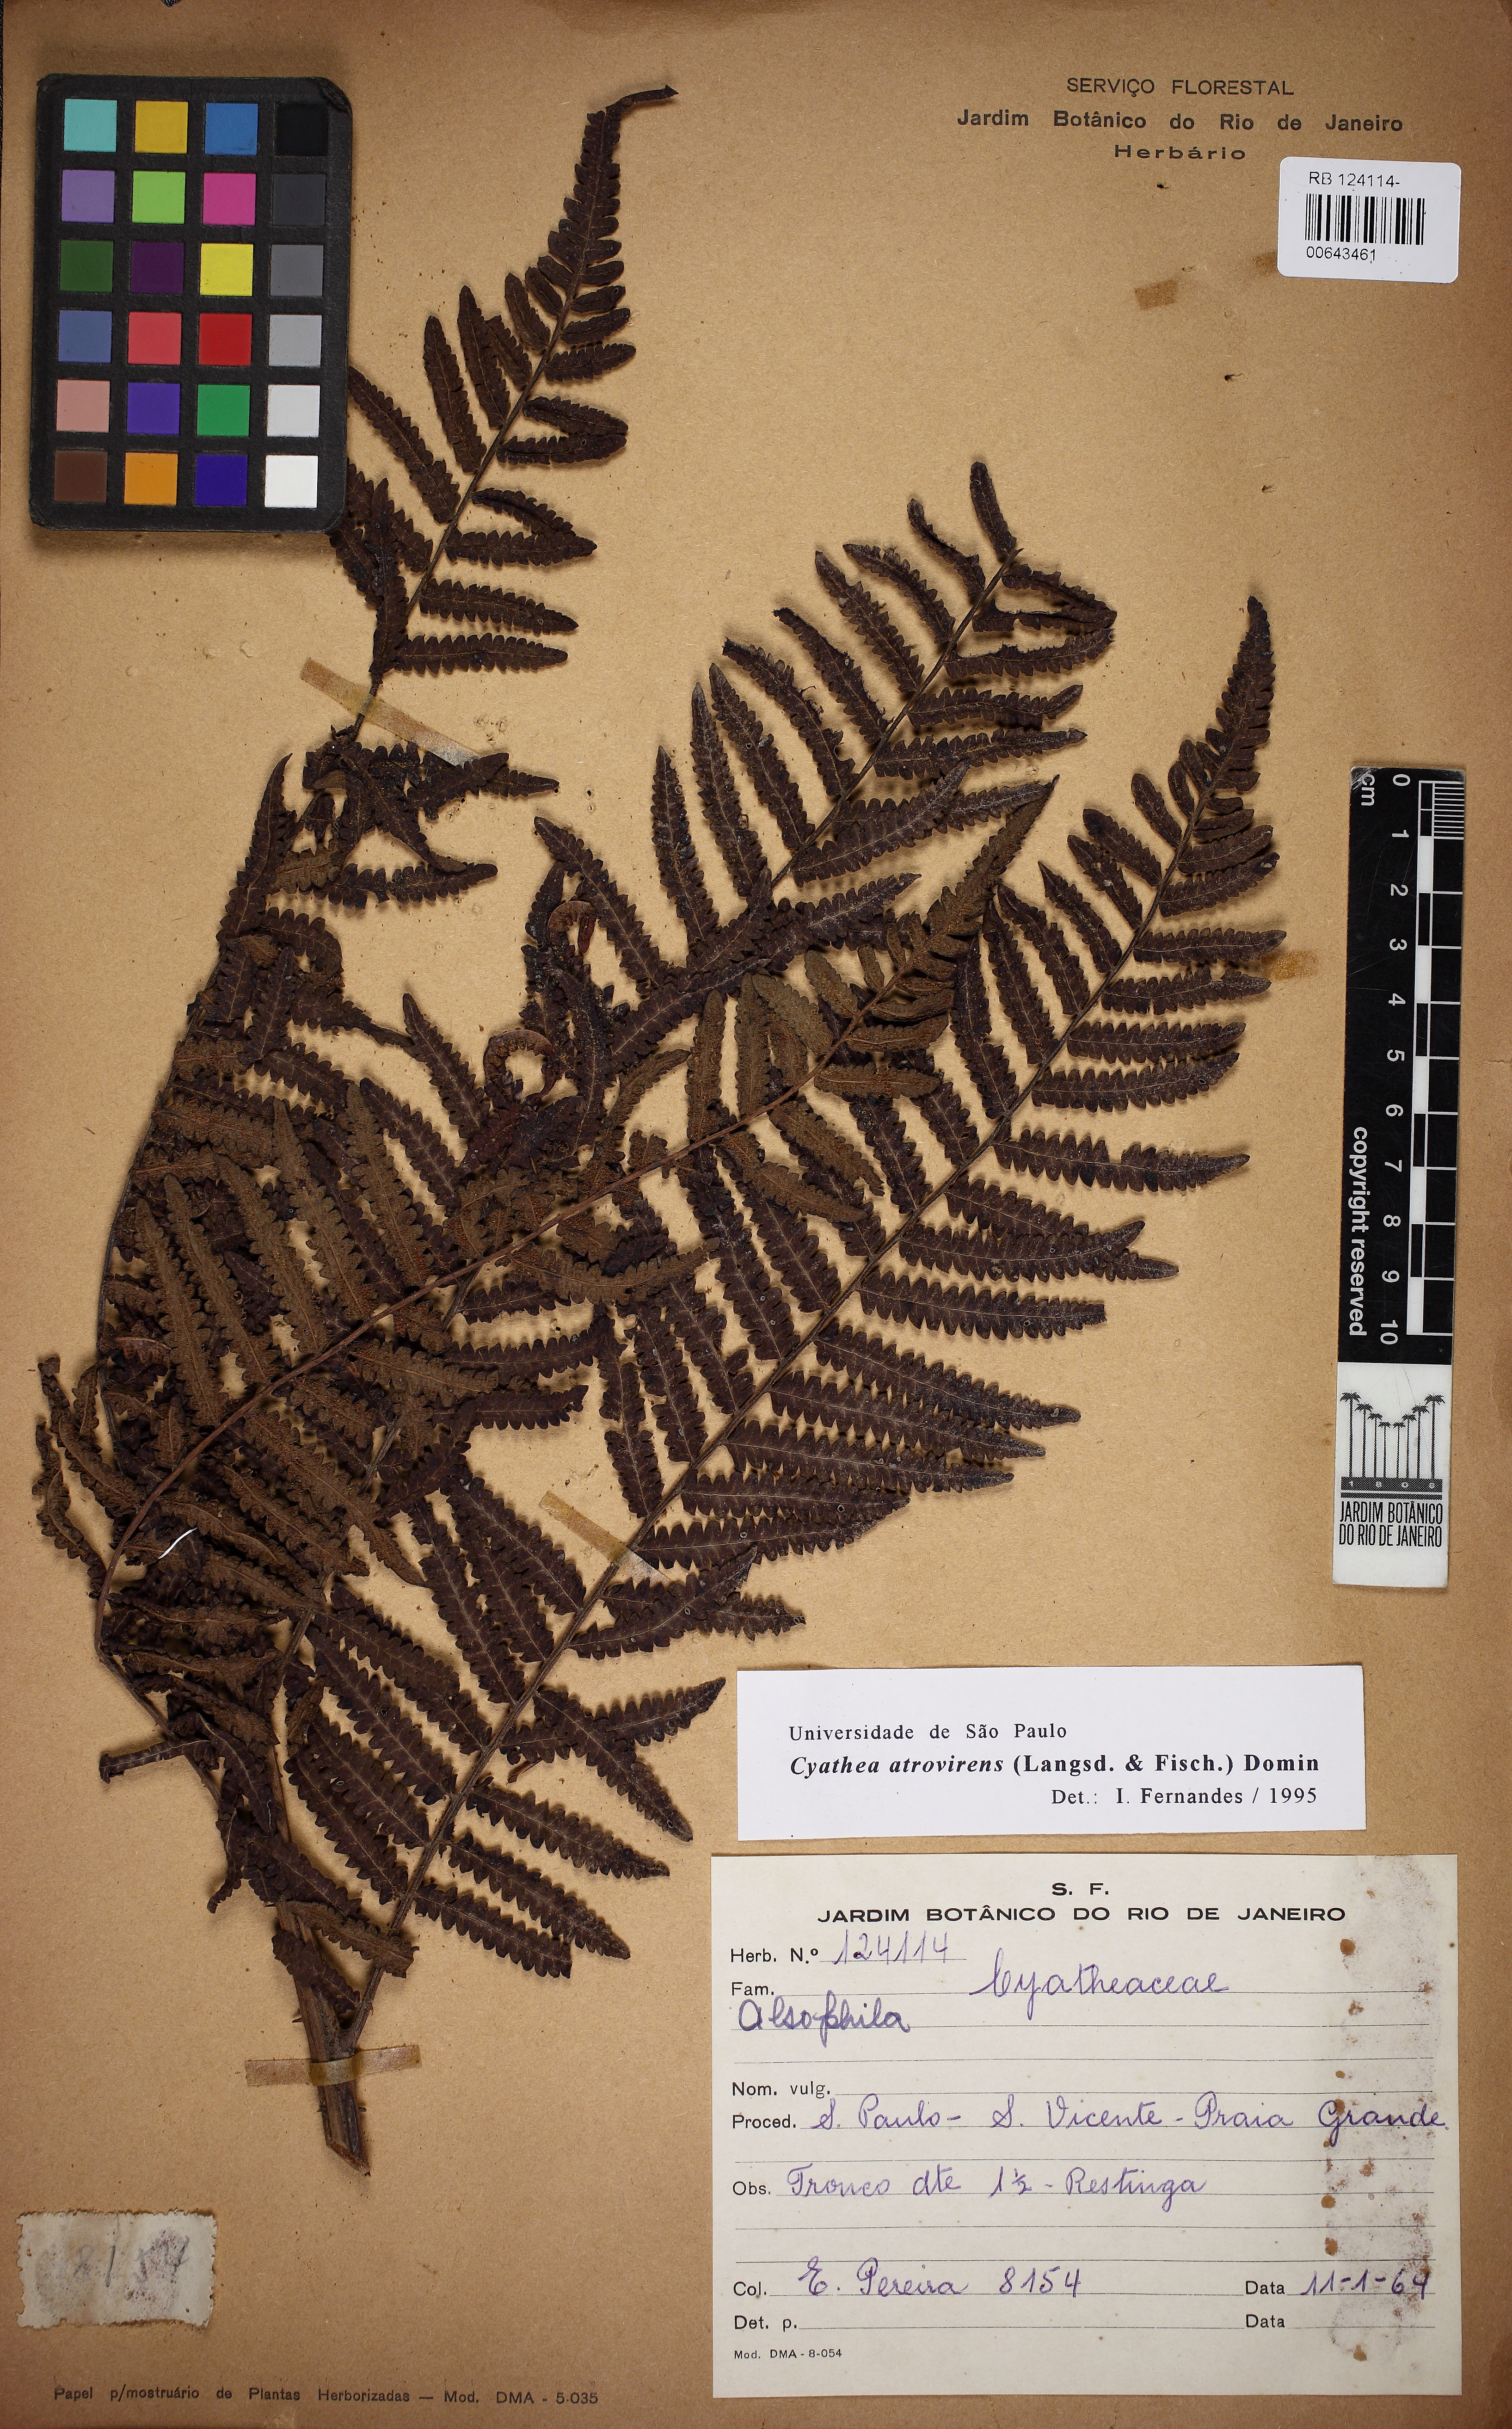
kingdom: Plantae
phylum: Tracheophyta
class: Polypodiopsida
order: Cyatheales
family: Cyatheaceae
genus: Cyathea
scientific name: Cyathea atrovirens
